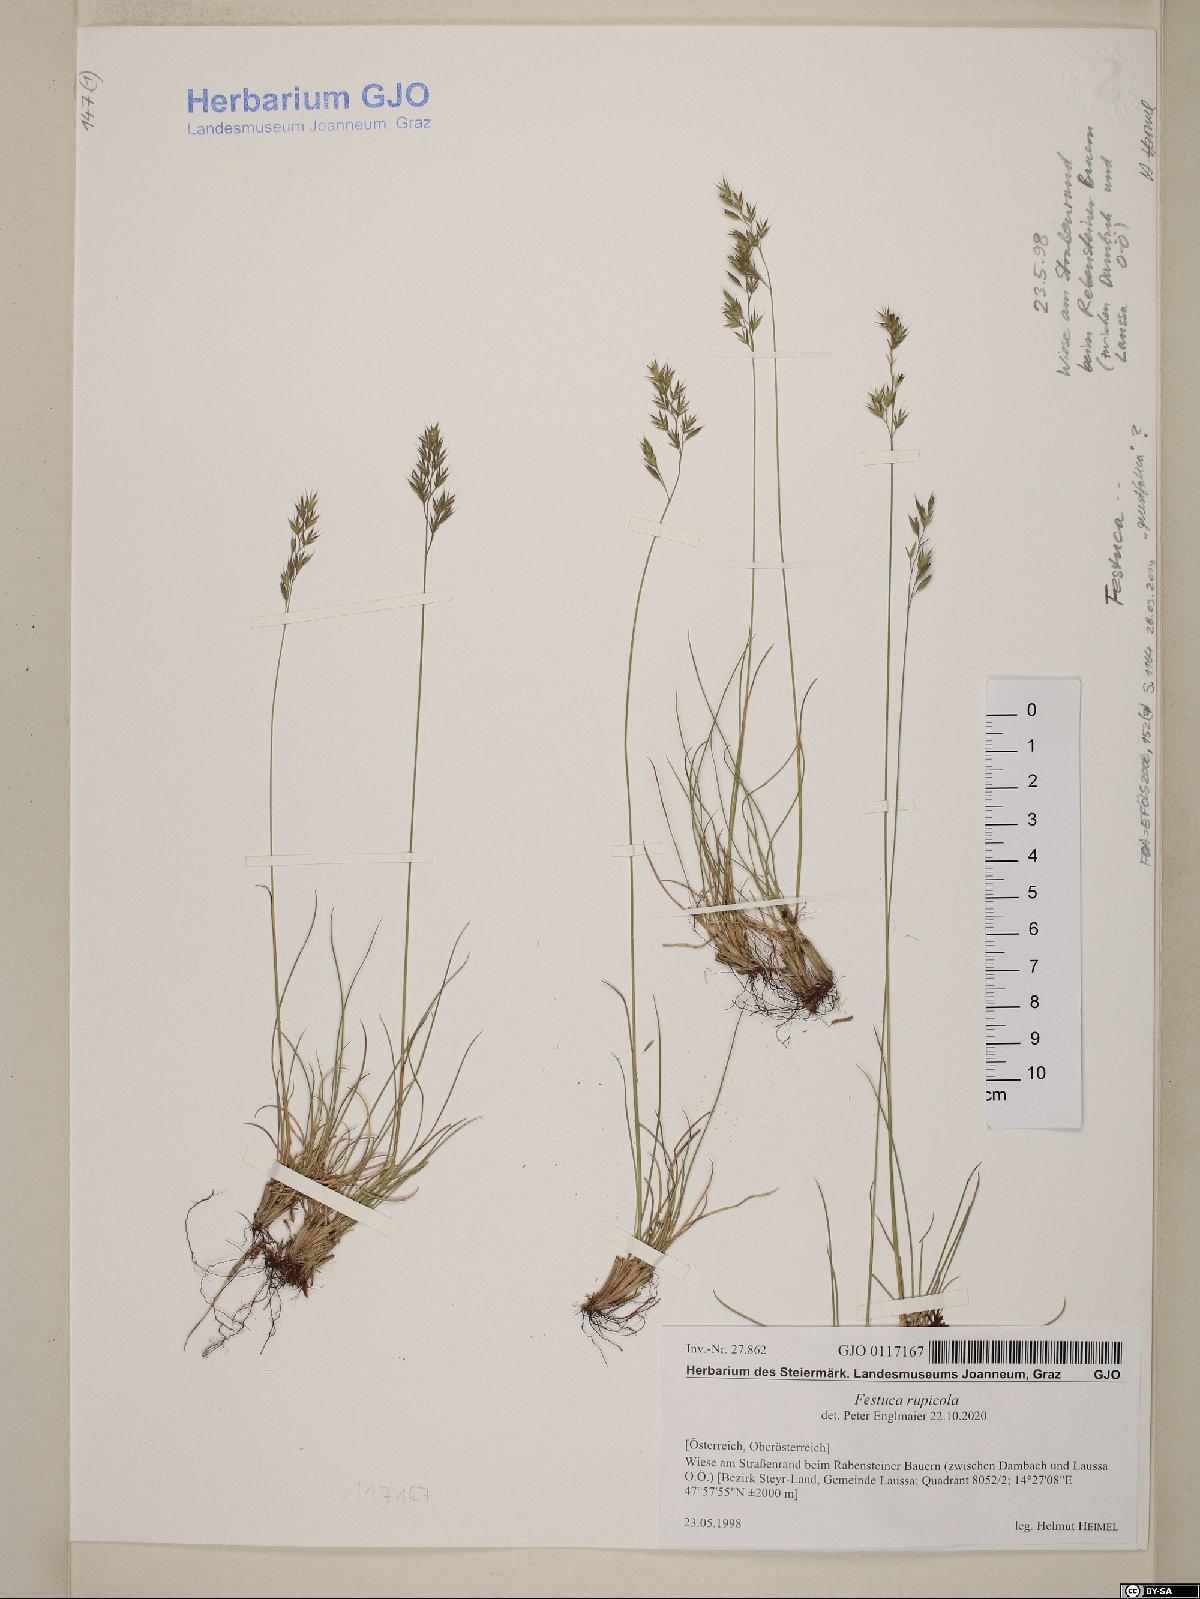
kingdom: Plantae
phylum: Tracheophyta
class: Liliopsida
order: Poales
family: Poaceae
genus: Festuca
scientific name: Festuca rupicola
